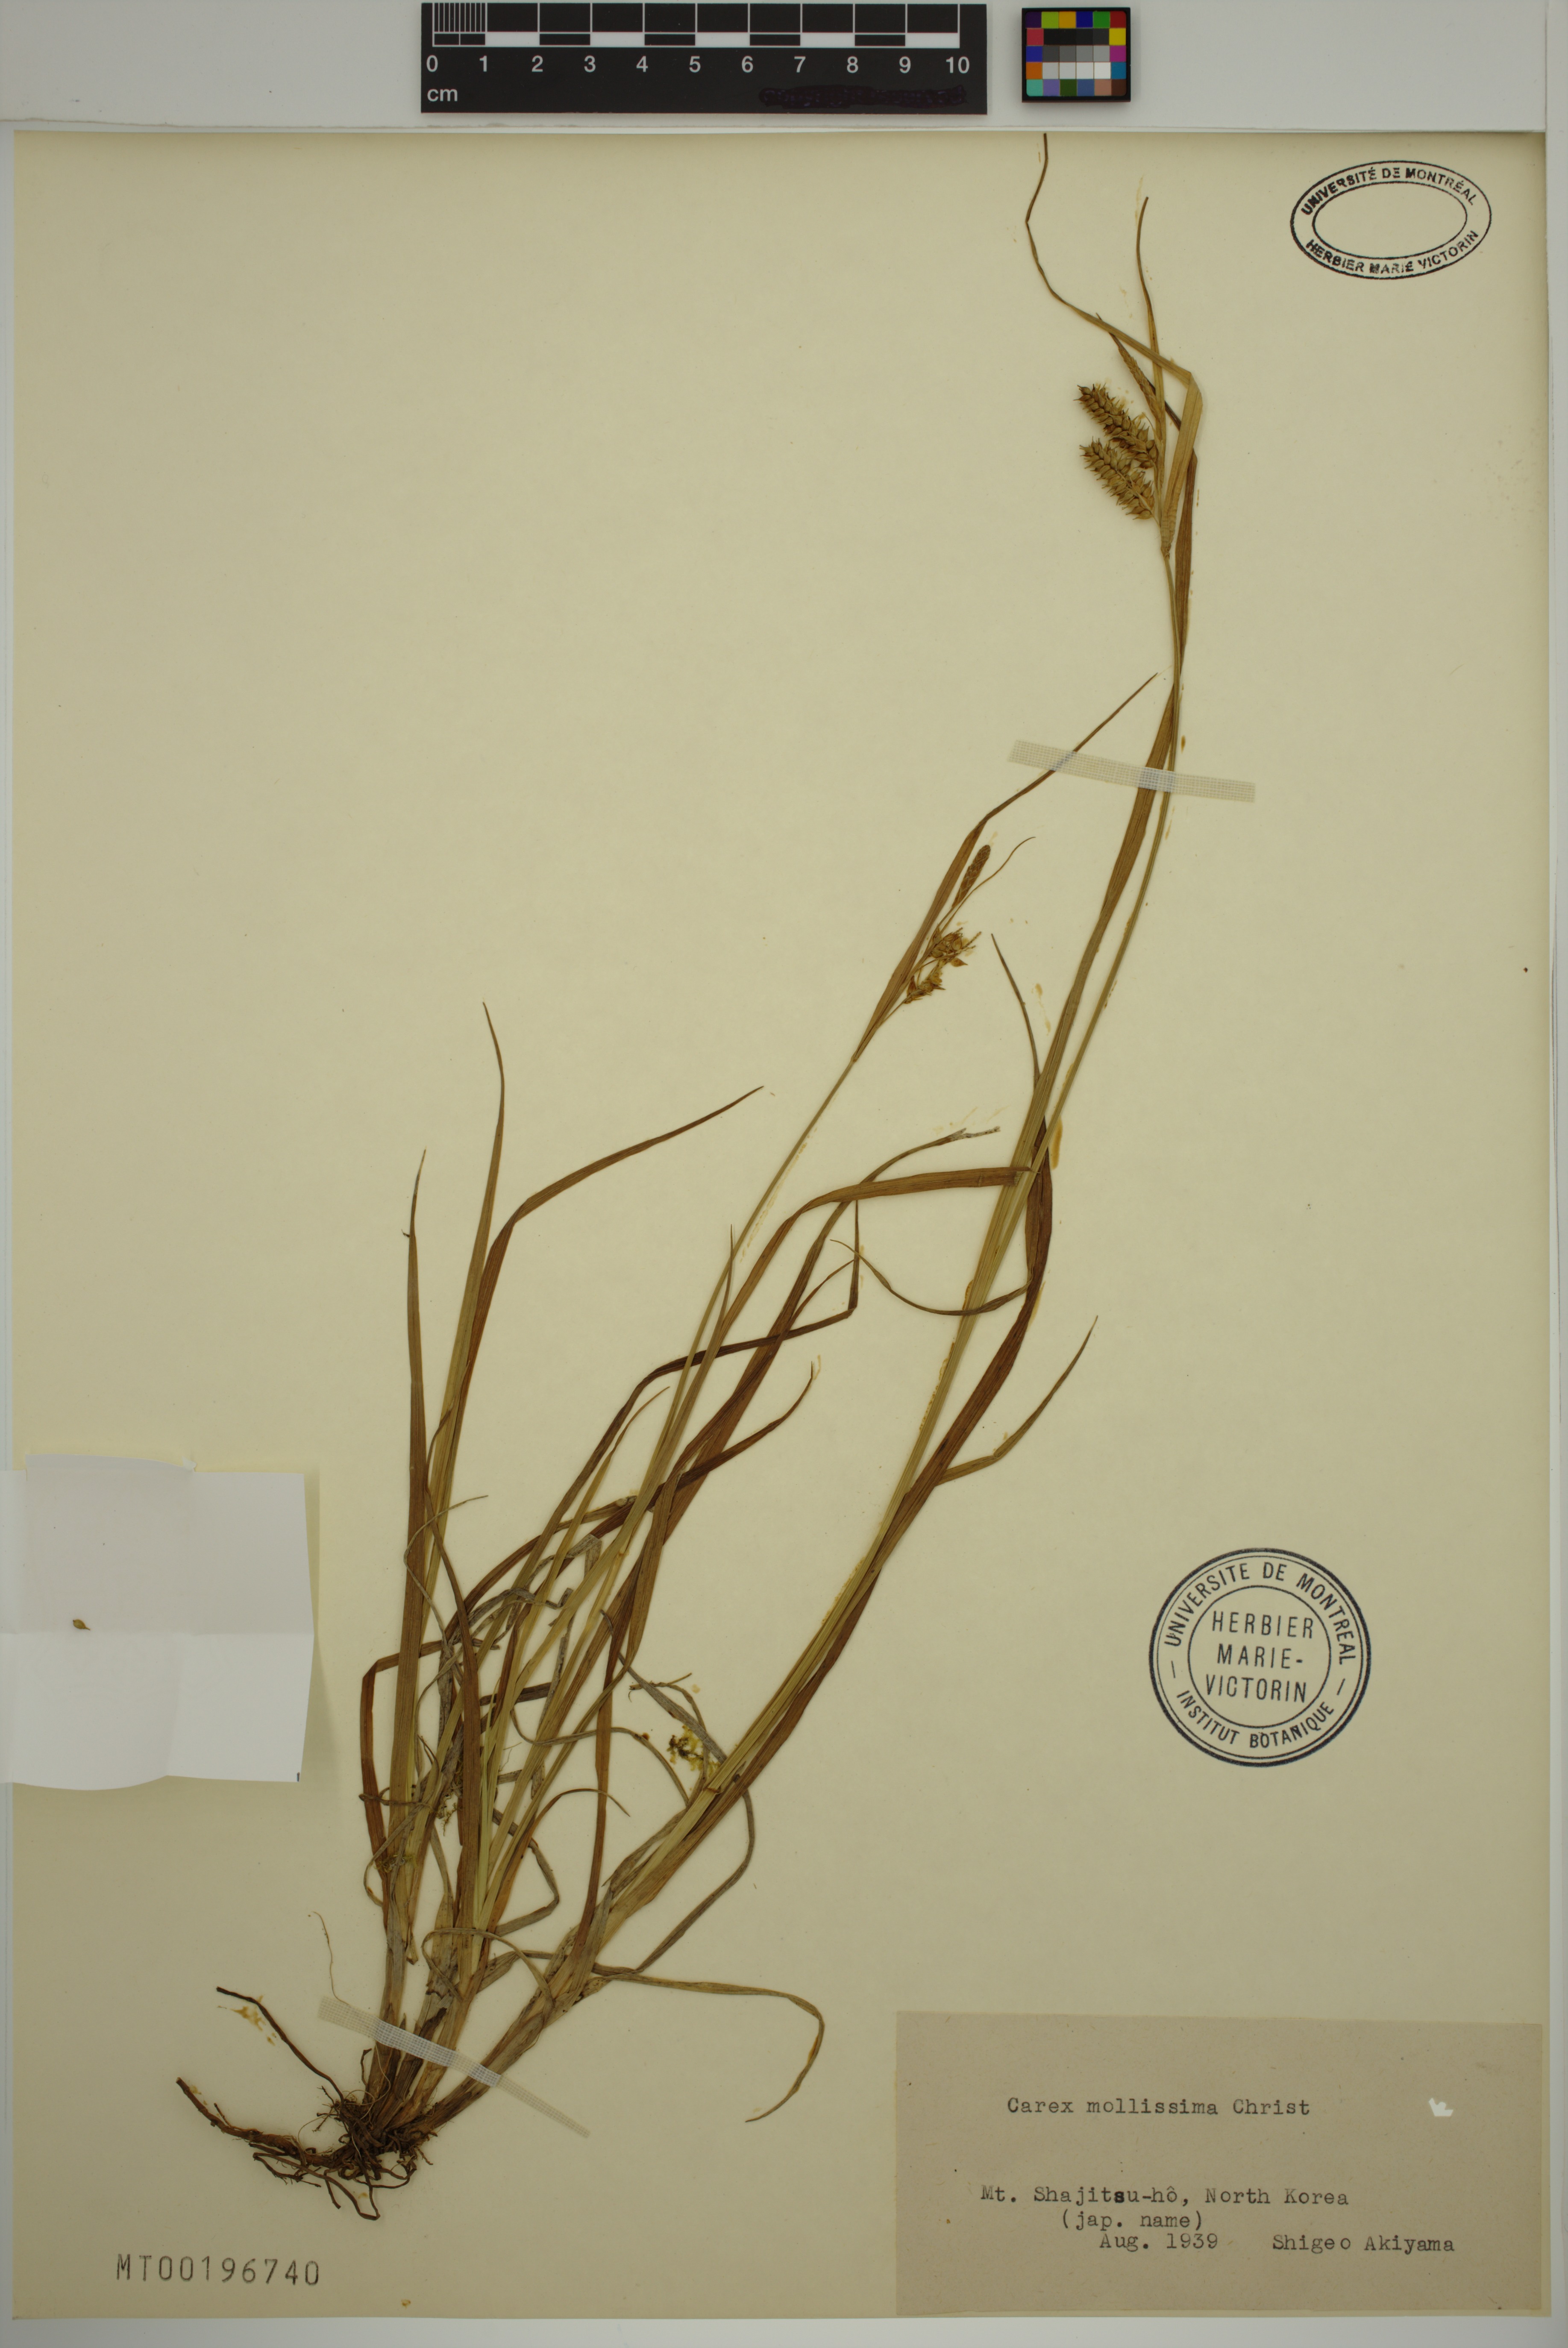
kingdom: Plantae
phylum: Tracheophyta
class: Liliopsida
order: Poales
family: Cyperaceae
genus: Carex
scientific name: Carex mollissima
